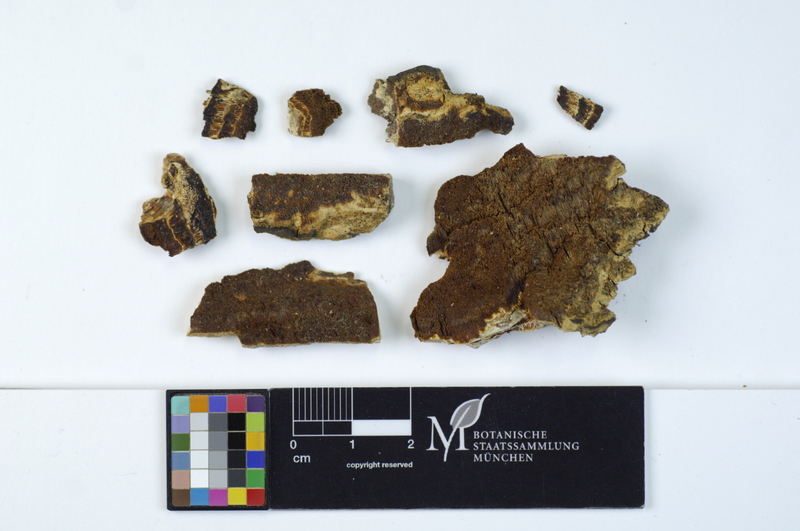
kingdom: Plantae
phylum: Tracheophyta
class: Magnoliopsida
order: Rosales
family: Rosaceae
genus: Malus
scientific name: Malus
